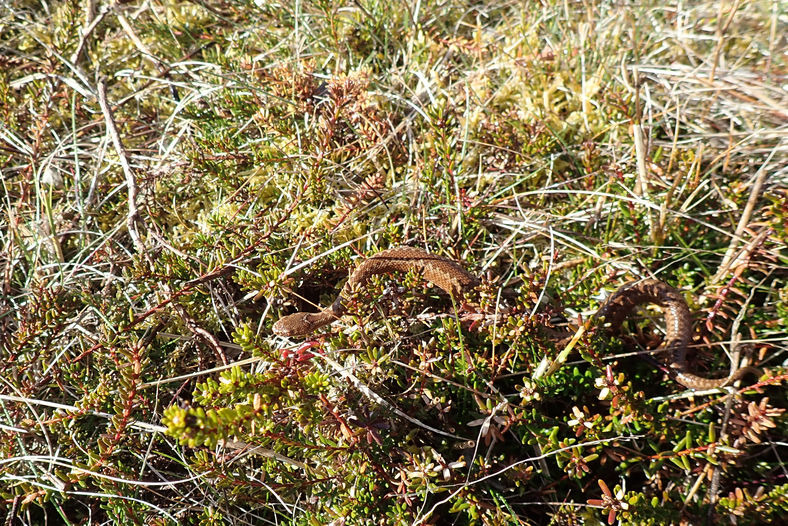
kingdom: Animalia
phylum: Chordata
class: Squamata
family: Viperidae
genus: Vipera
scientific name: Vipera berus
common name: Hugorm
